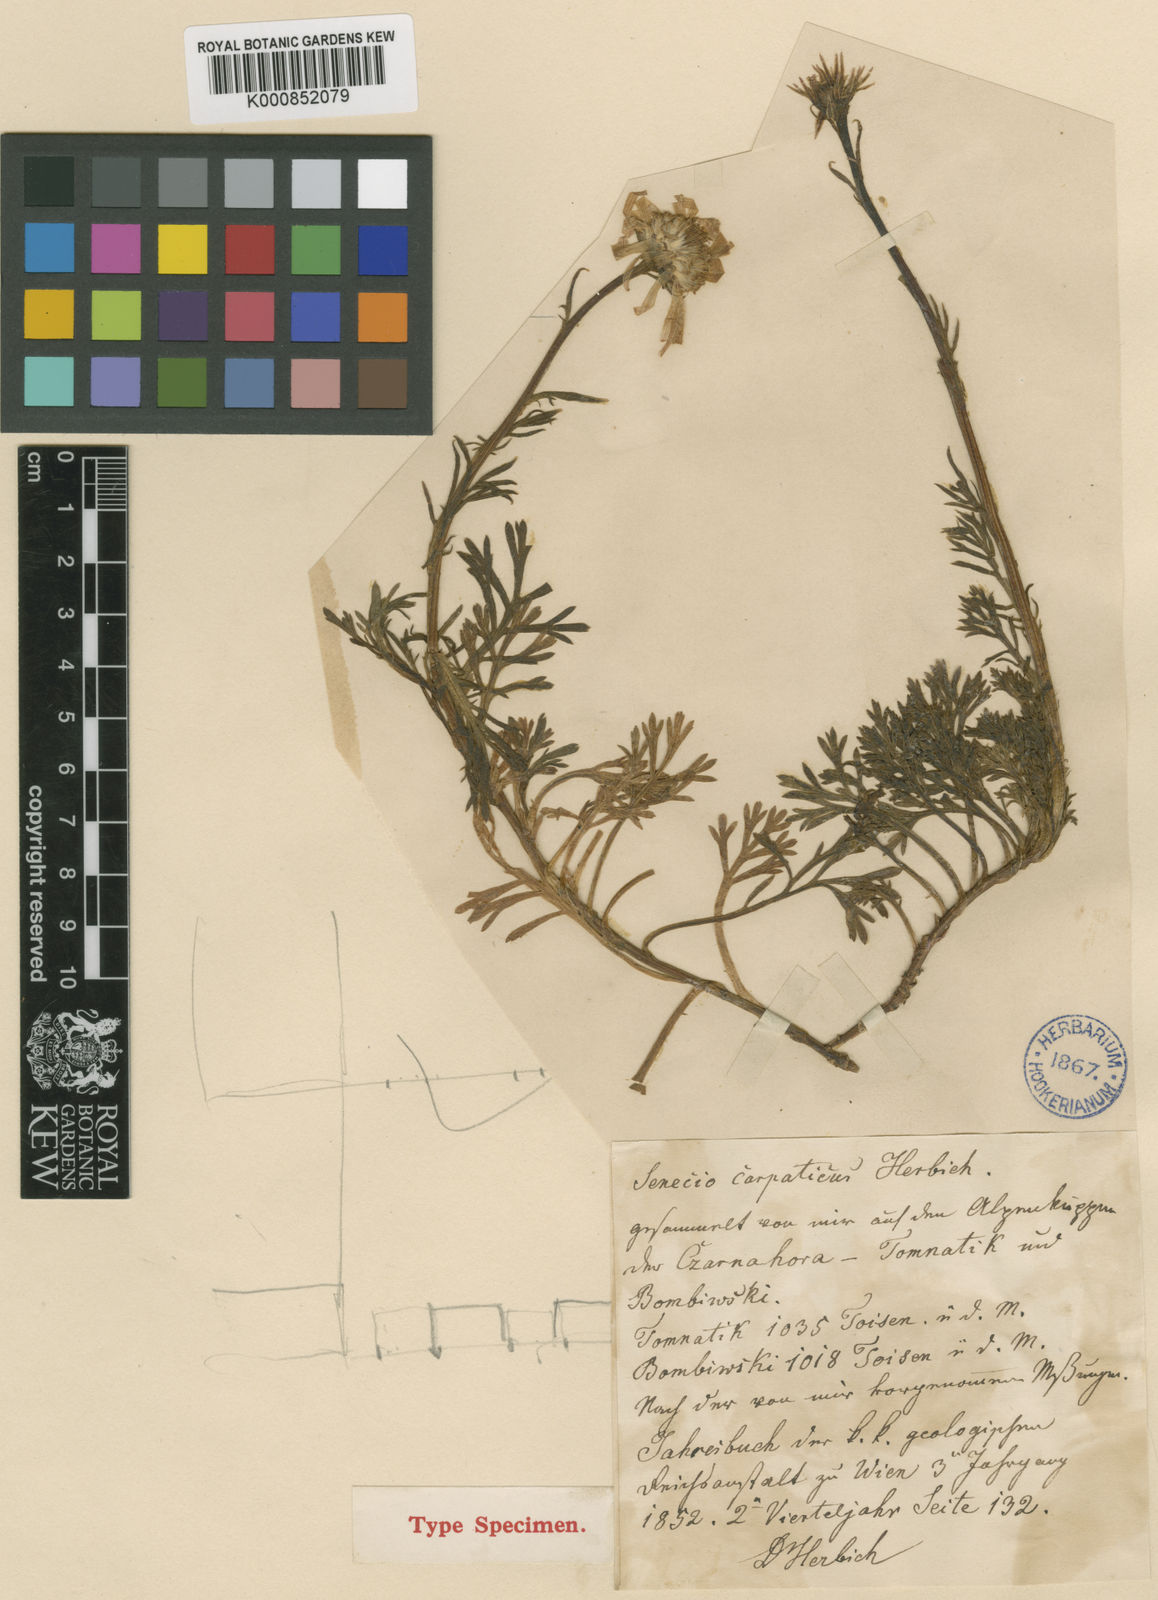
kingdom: Plantae
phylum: Tracheophyta
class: Magnoliopsida
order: Asterales
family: Asteraceae
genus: Jacobaea
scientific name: Jacobaea abrotanifolia
